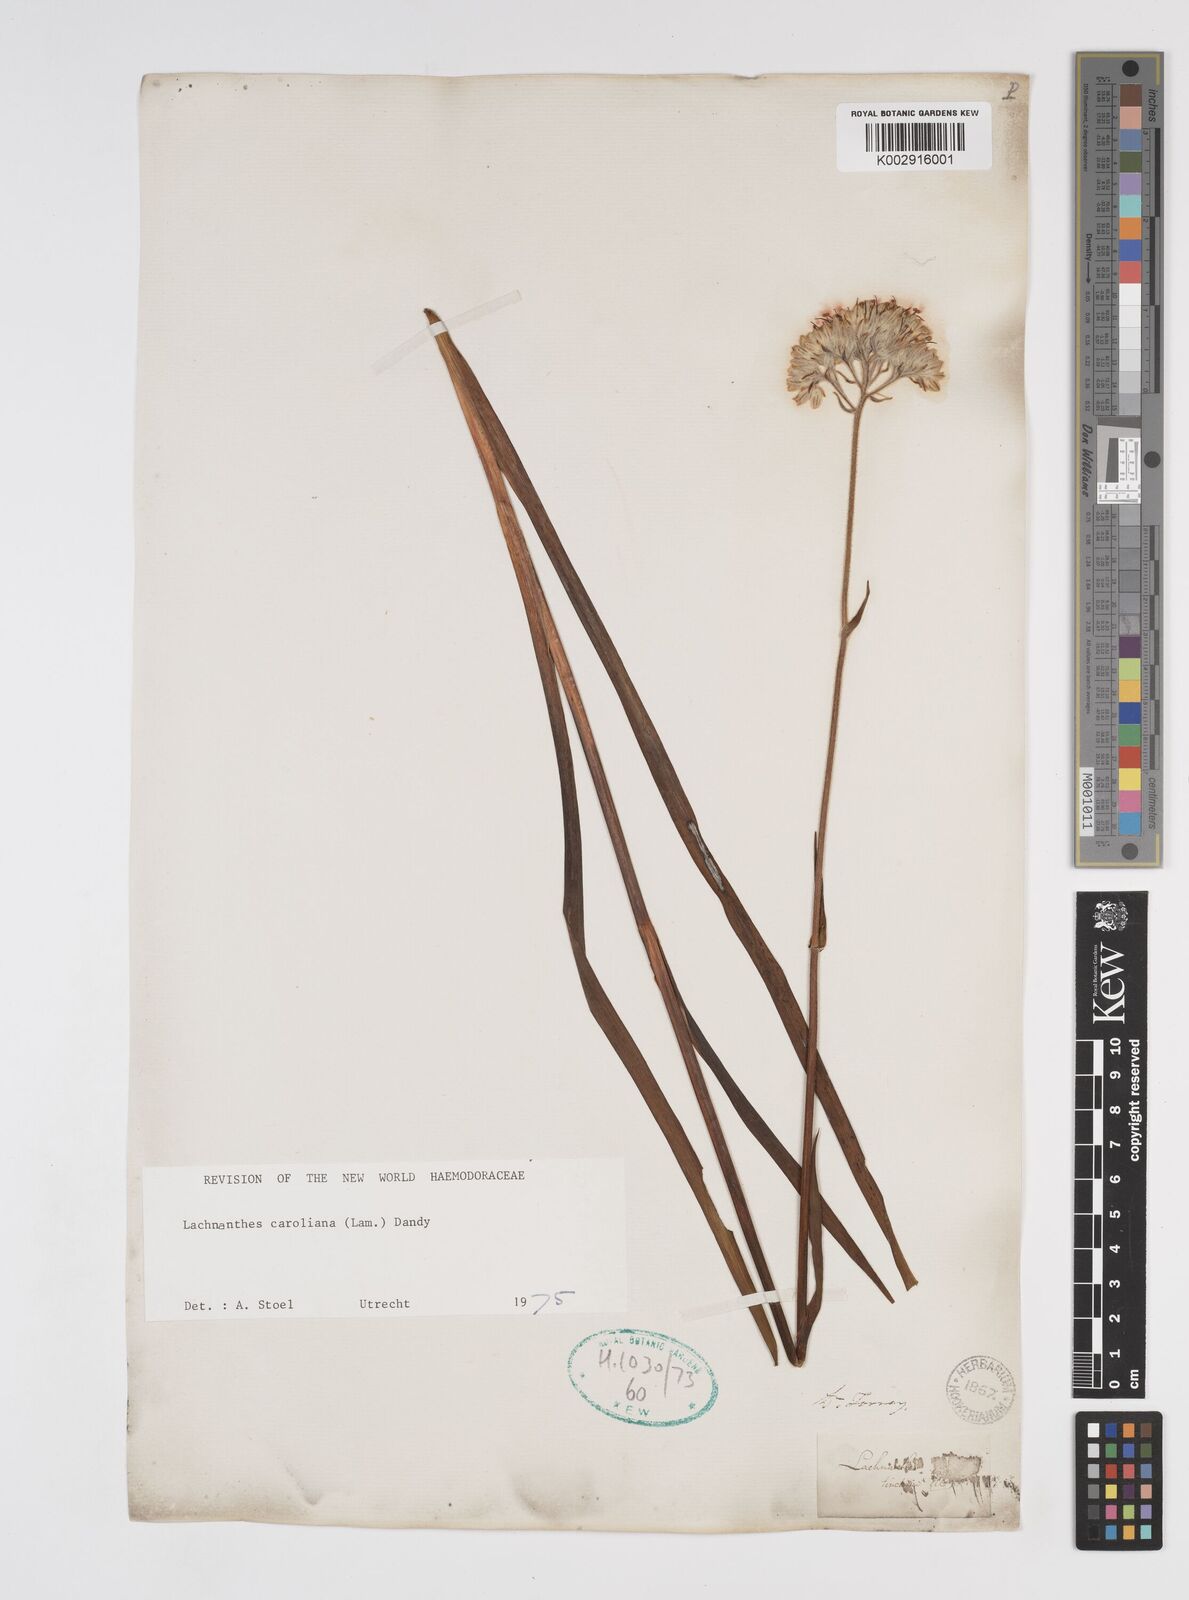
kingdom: Plantae
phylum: Tracheophyta
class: Liliopsida
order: Commelinales
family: Haemodoraceae
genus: Lachnanthes
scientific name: Lachnanthes caroliniana
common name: Carolina redroot
